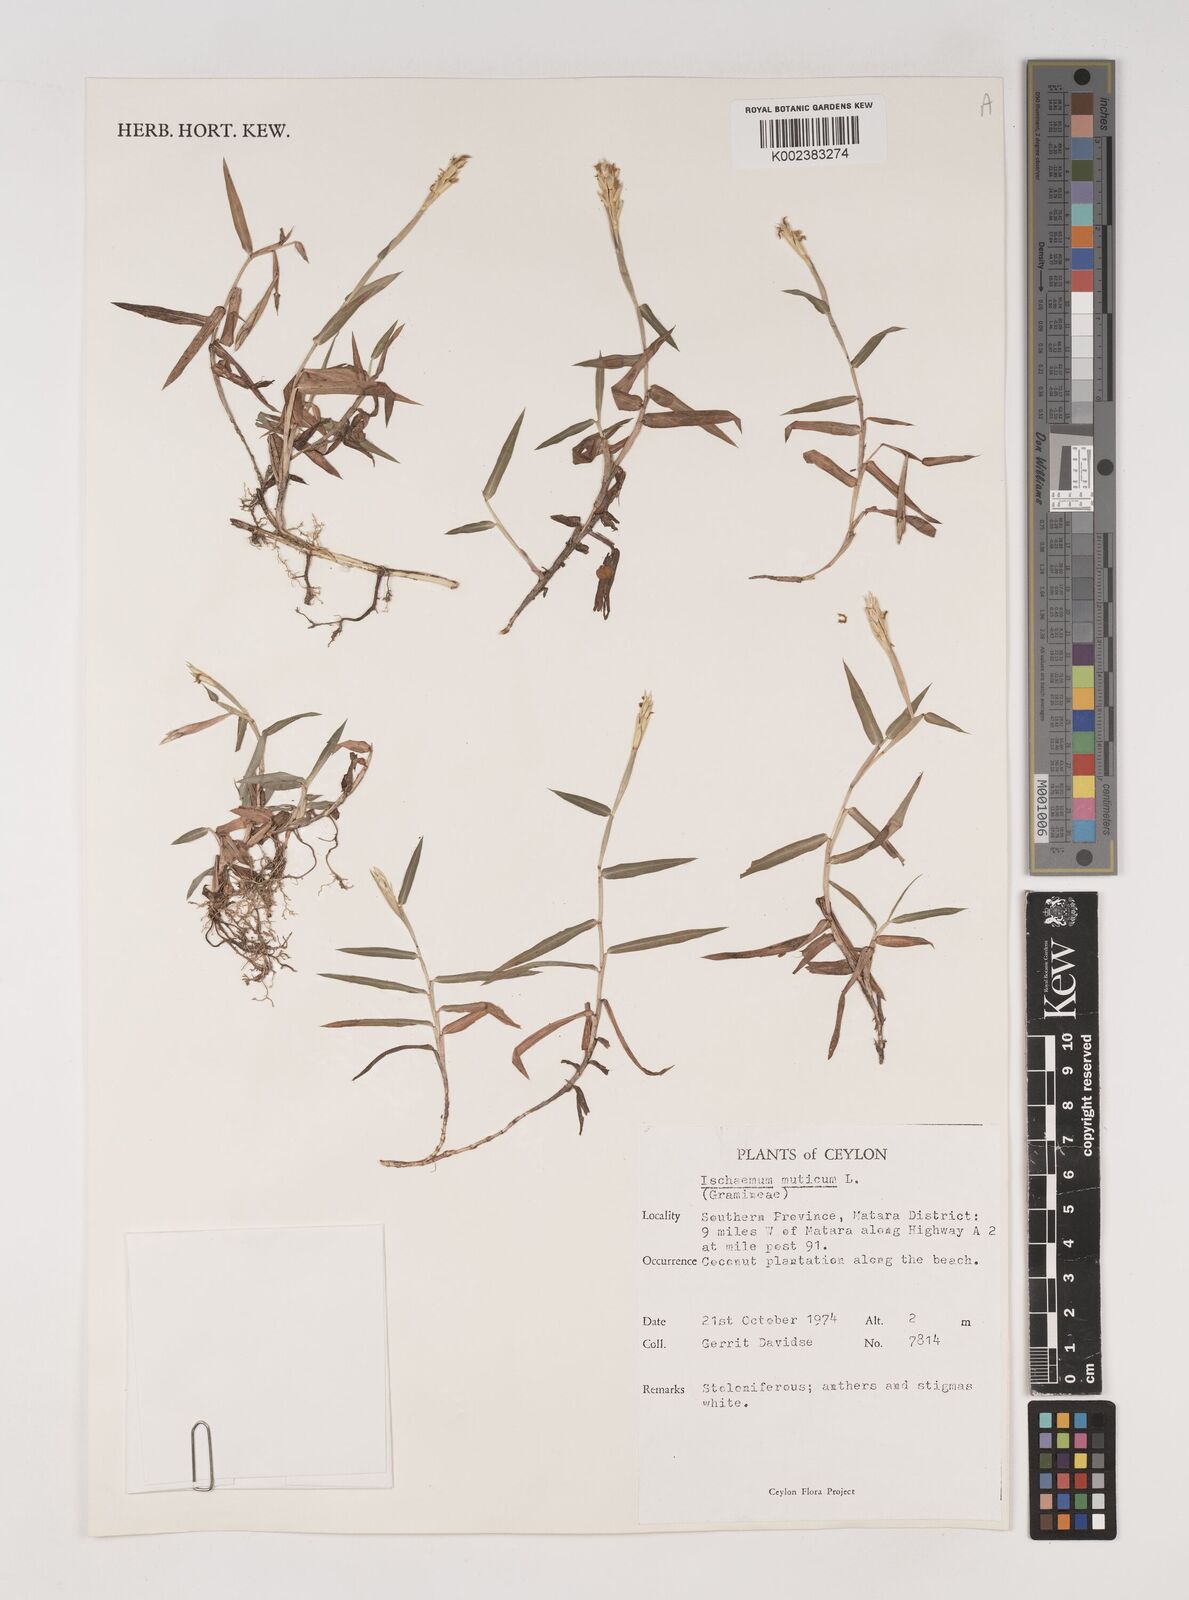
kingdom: Plantae
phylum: Tracheophyta
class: Liliopsida
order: Poales
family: Poaceae
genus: Ischaemum
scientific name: Ischaemum muticum
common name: Drought grass
